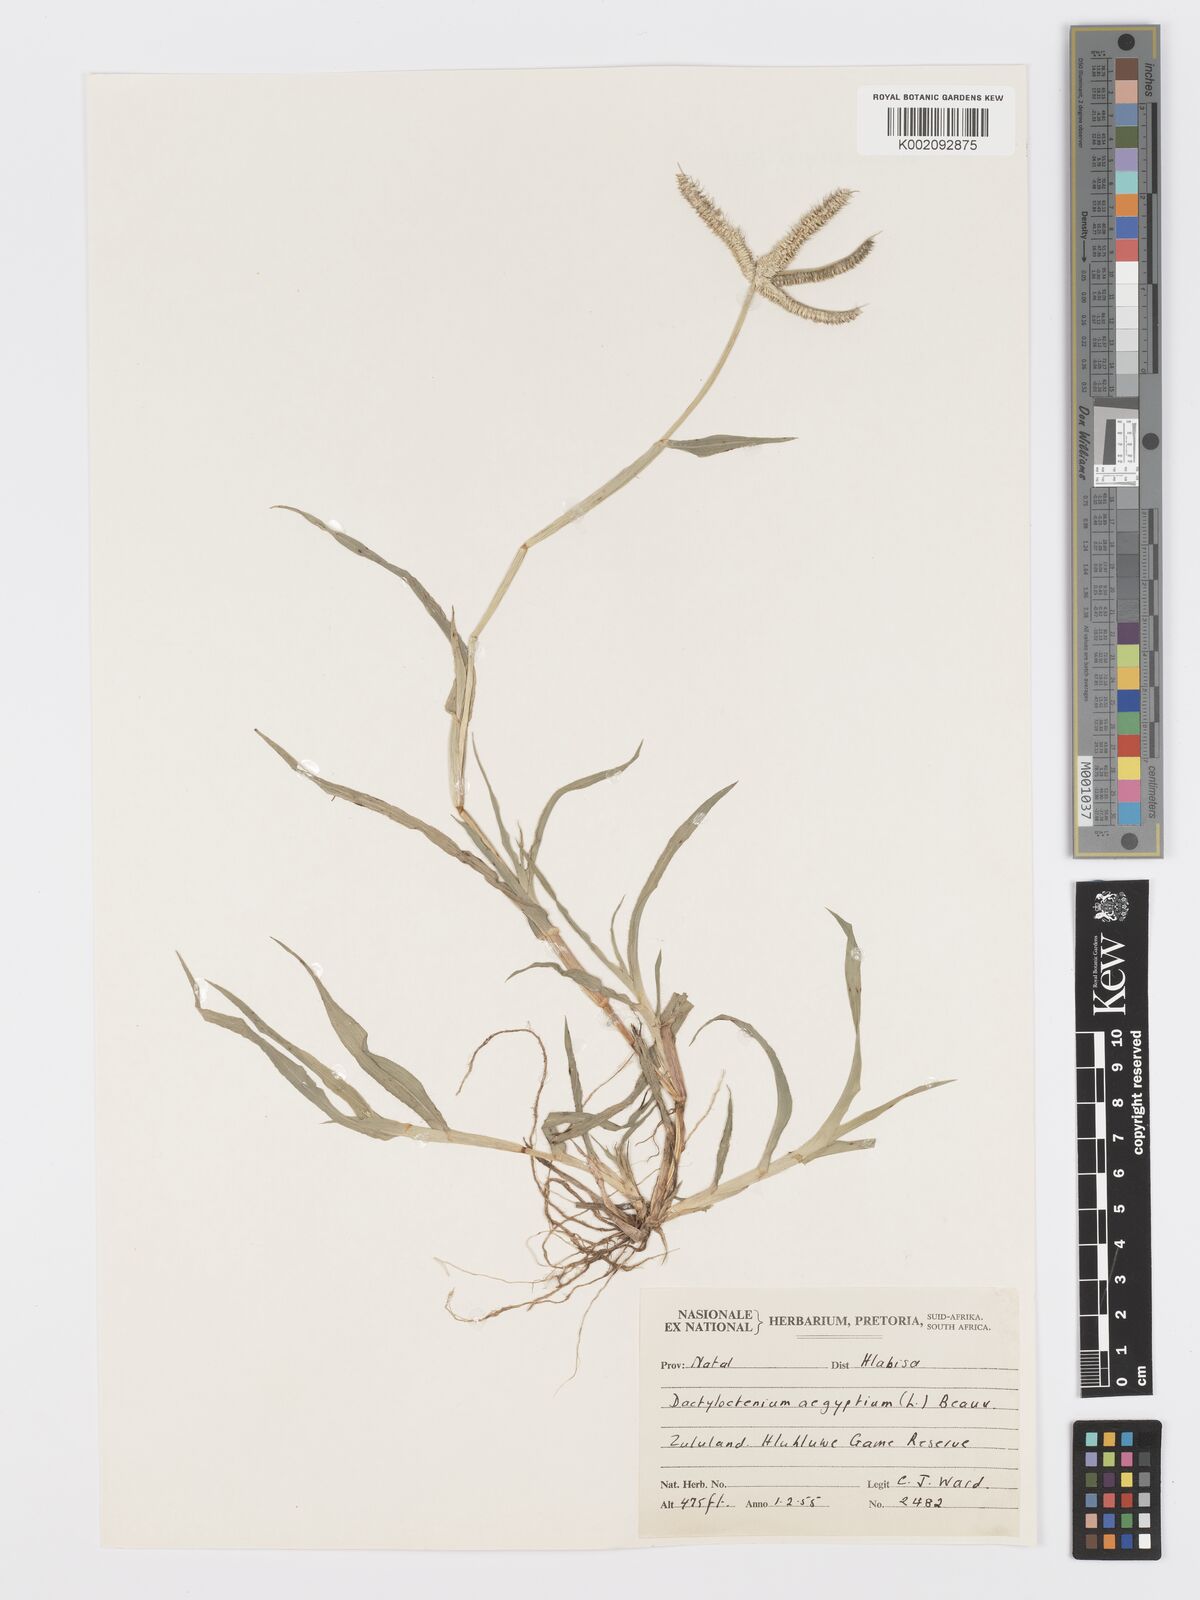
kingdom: Plantae
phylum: Tracheophyta
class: Liliopsida
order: Poales
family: Poaceae
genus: Dactyloctenium
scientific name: Dactyloctenium aegyptium
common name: Egyptian grass
